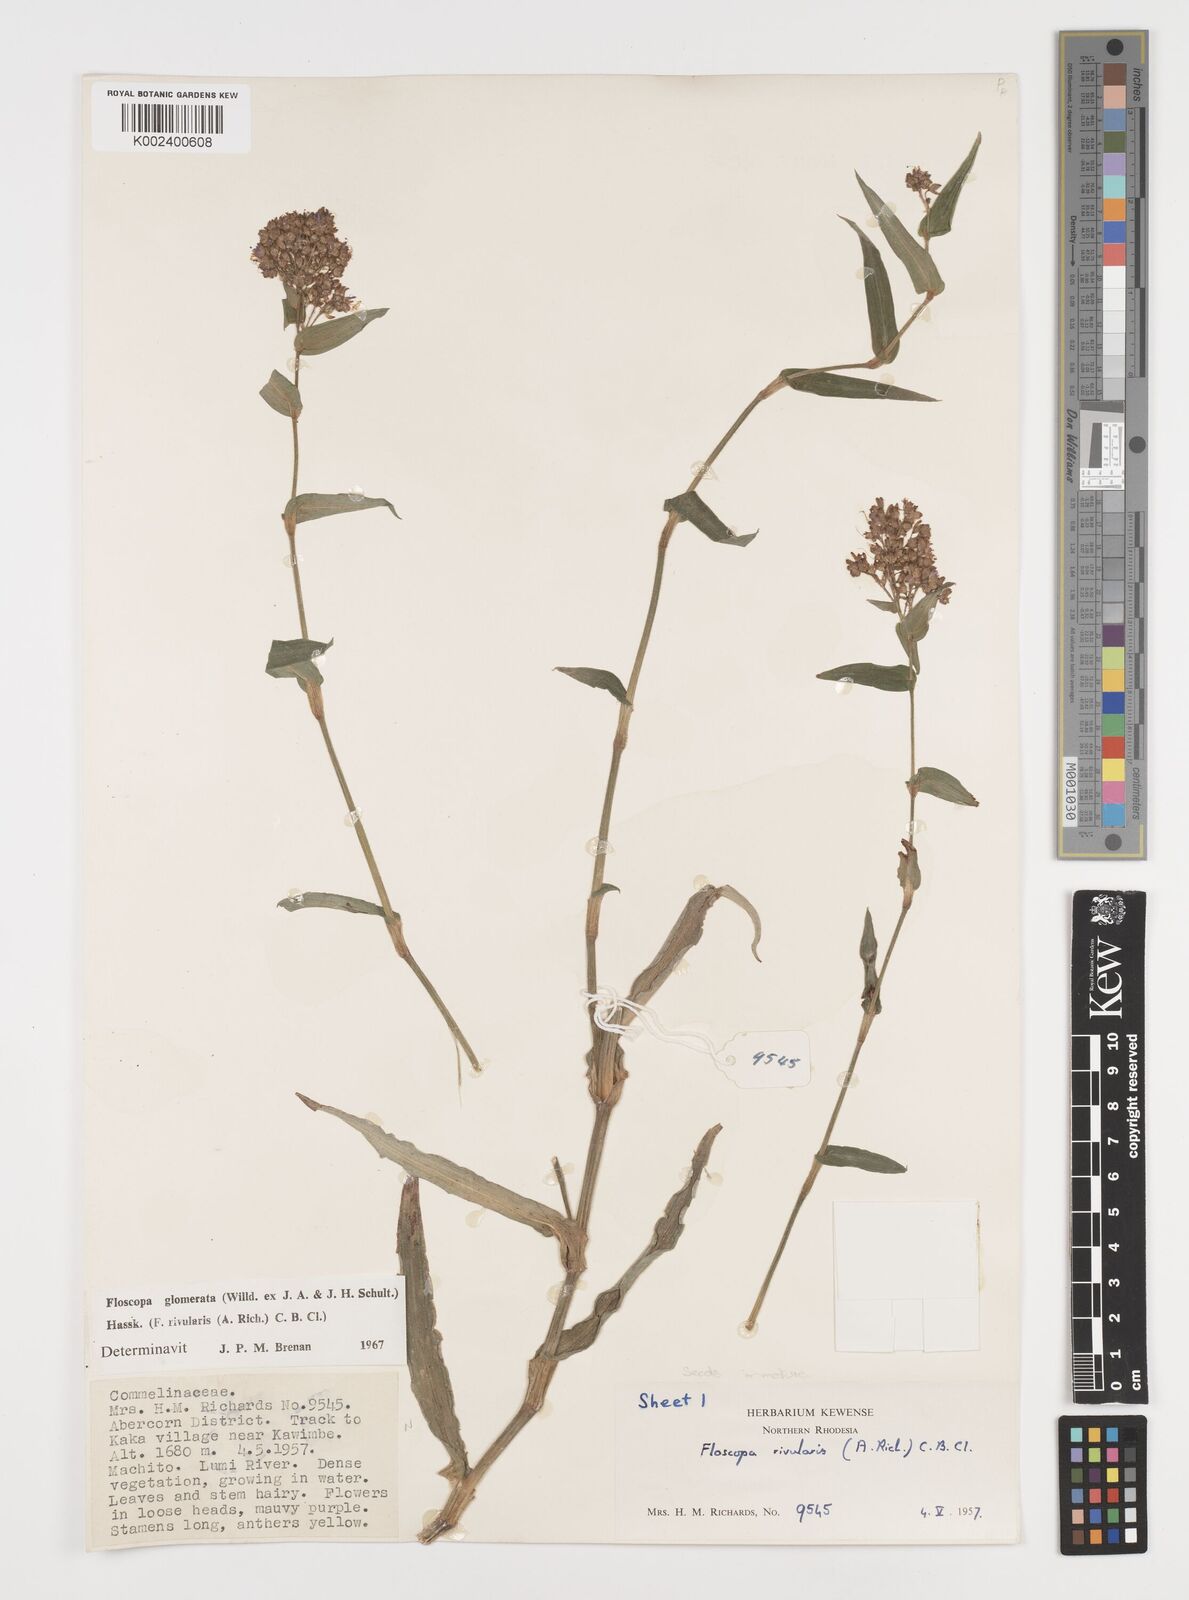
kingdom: Plantae
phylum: Tracheophyta
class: Liliopsida
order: Commelinales
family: Commelinaceae
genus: Floscopa
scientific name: Floscopa glomerata
